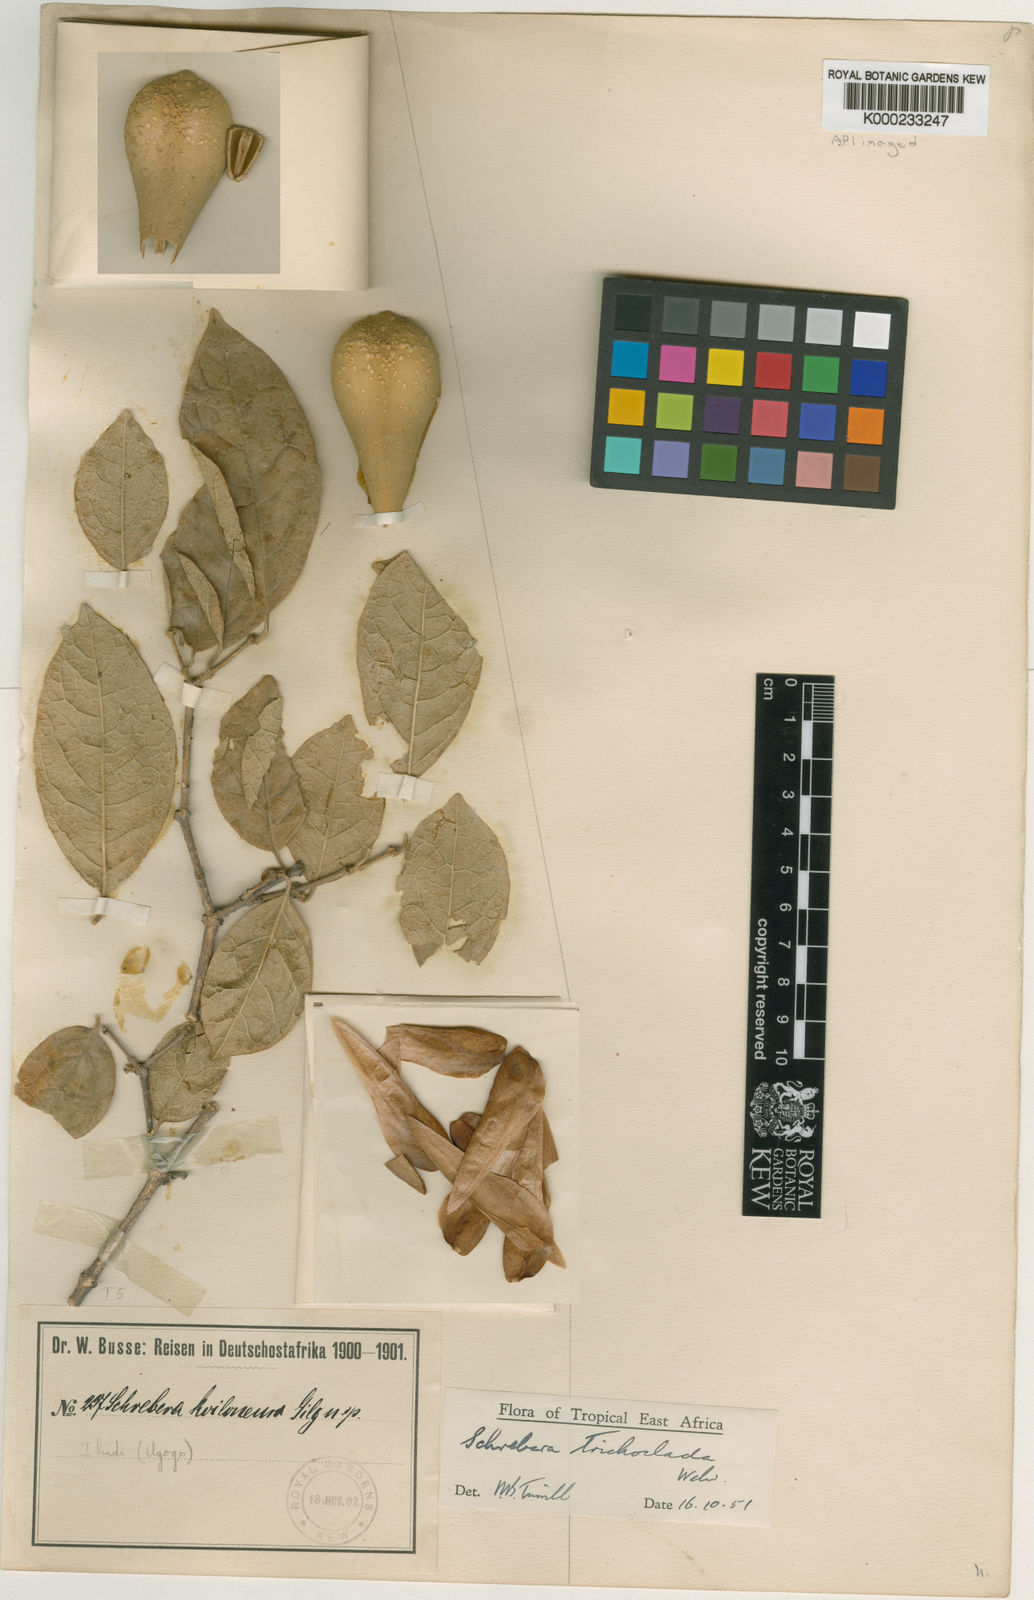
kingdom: Plantae
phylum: Tracheophyta
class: Magnoliopsida
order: Lamiales
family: Oleaceae
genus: Schrebera
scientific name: Schrebera trichoclada
